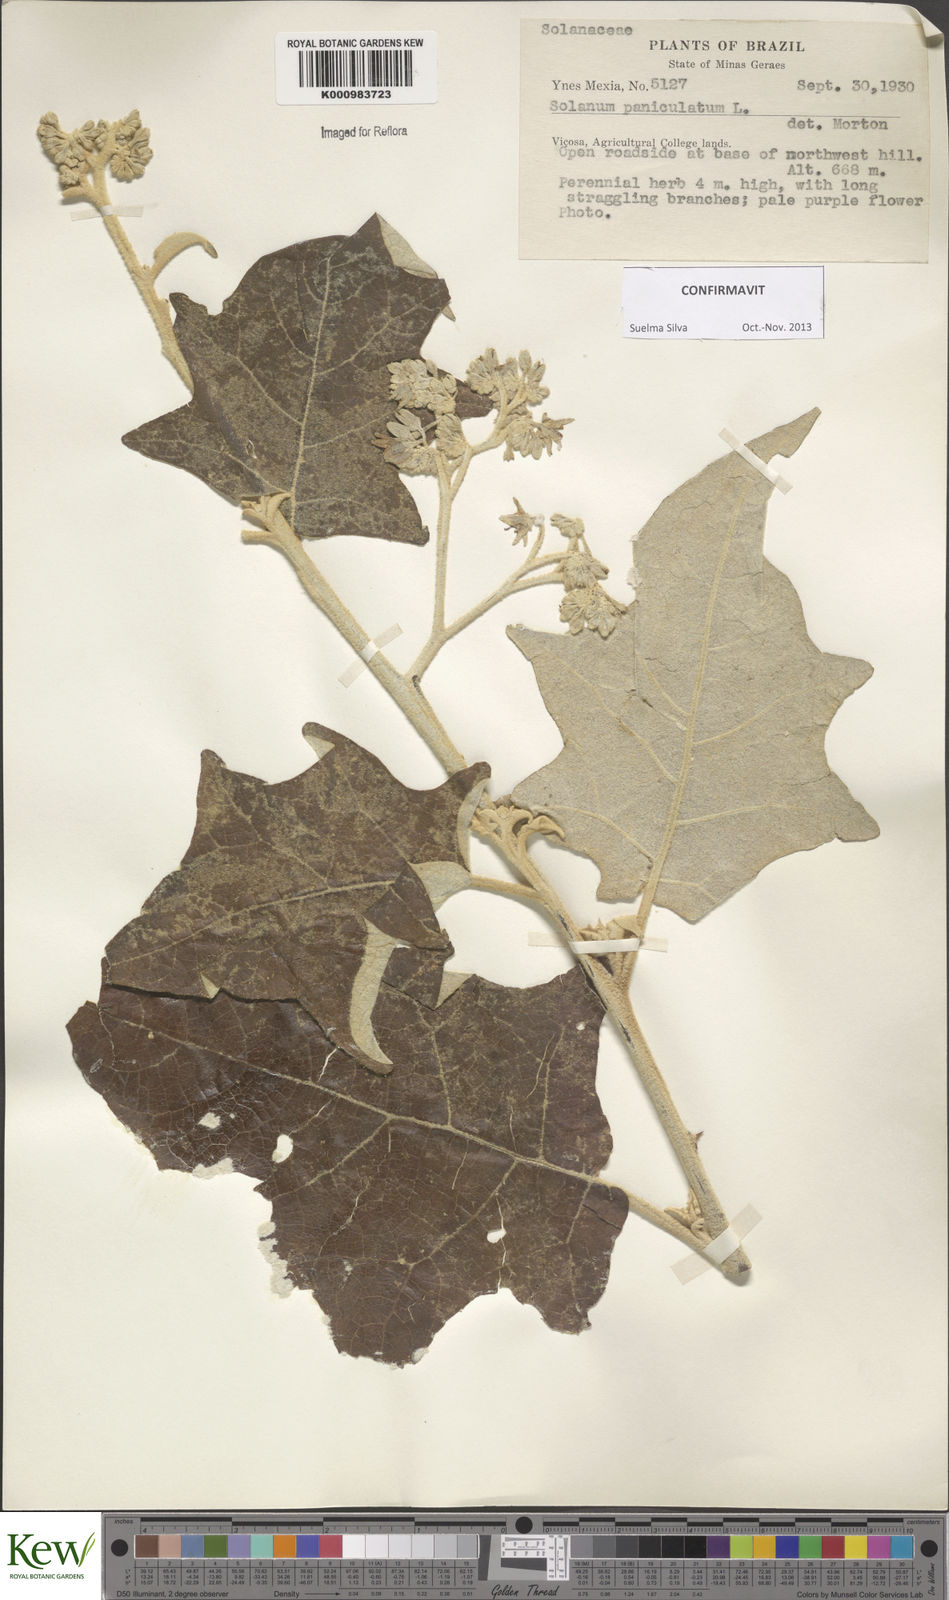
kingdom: Plantae
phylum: Tracheophyta
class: Magnoliopsida
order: Solanales
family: Solanaceae
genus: Solanum
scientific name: Solanum paniculatum
